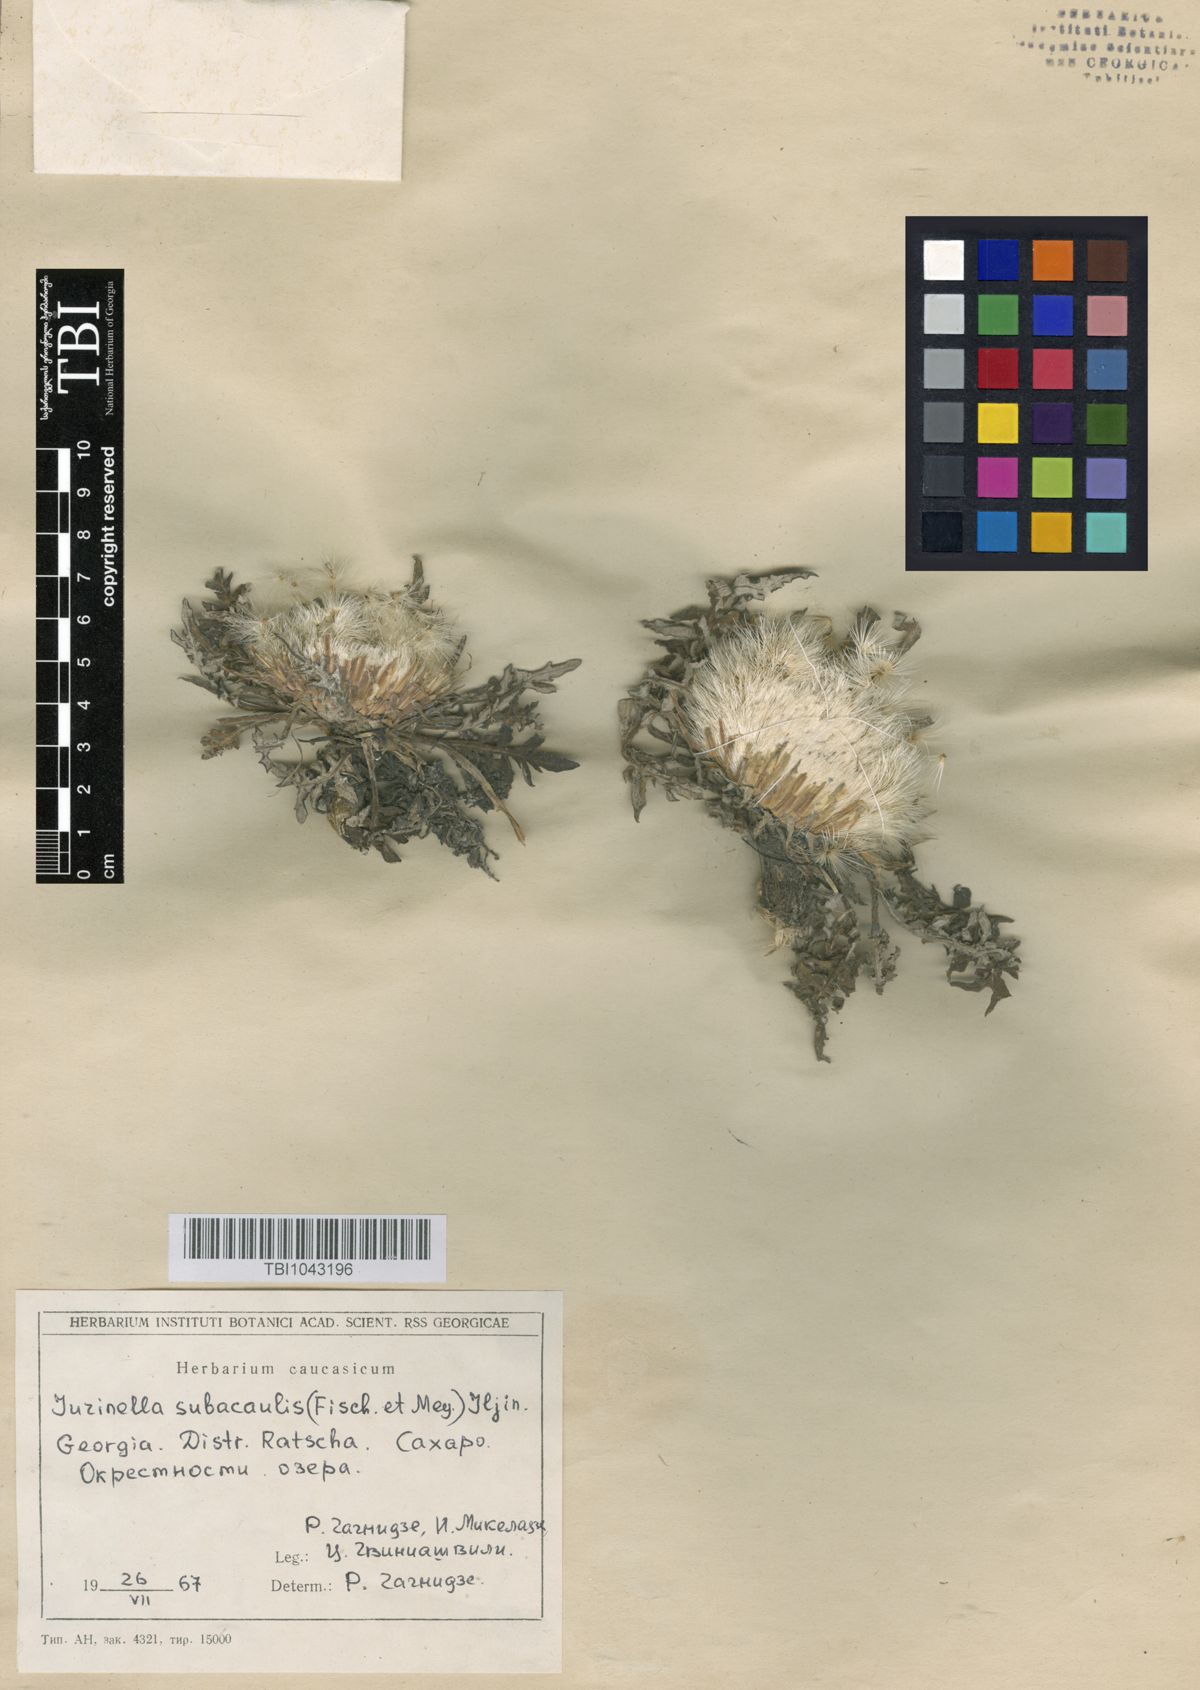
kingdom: Plantae
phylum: Tracheophyta
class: Magnoliopsida
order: Asterales
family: Asteraceae
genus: Jurinea
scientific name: Jurinea moschus
